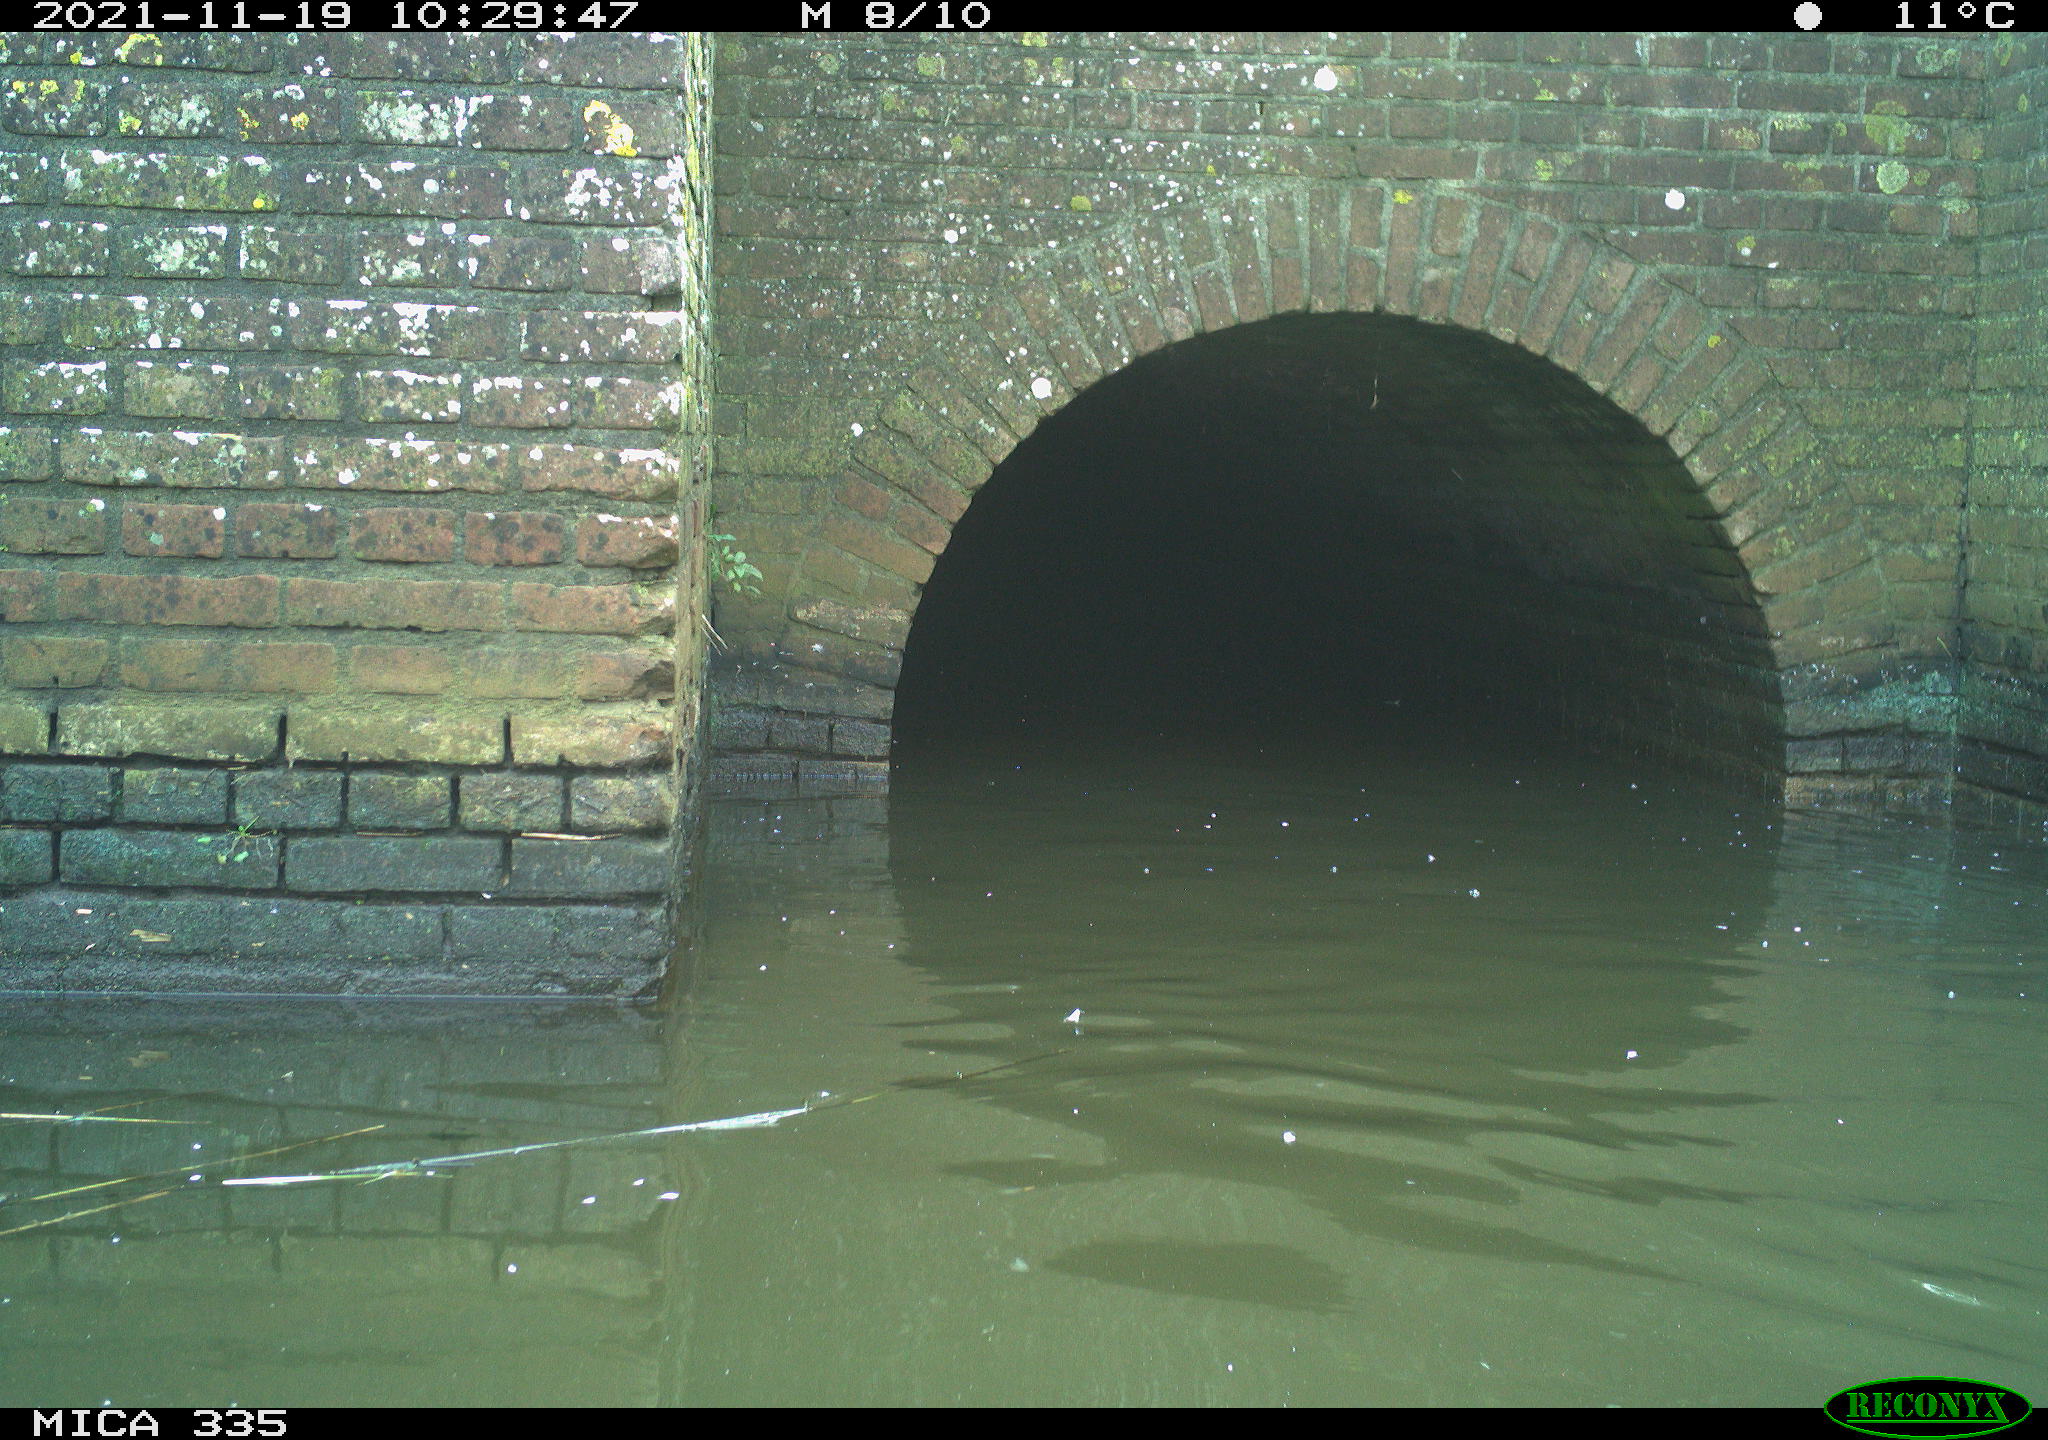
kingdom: Animalia
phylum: Chordata
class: Aves
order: Suliformes
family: Phalacrocoracidae
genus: Phalacrocorax
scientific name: Phalacrocorax carbo
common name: Great cormorant
